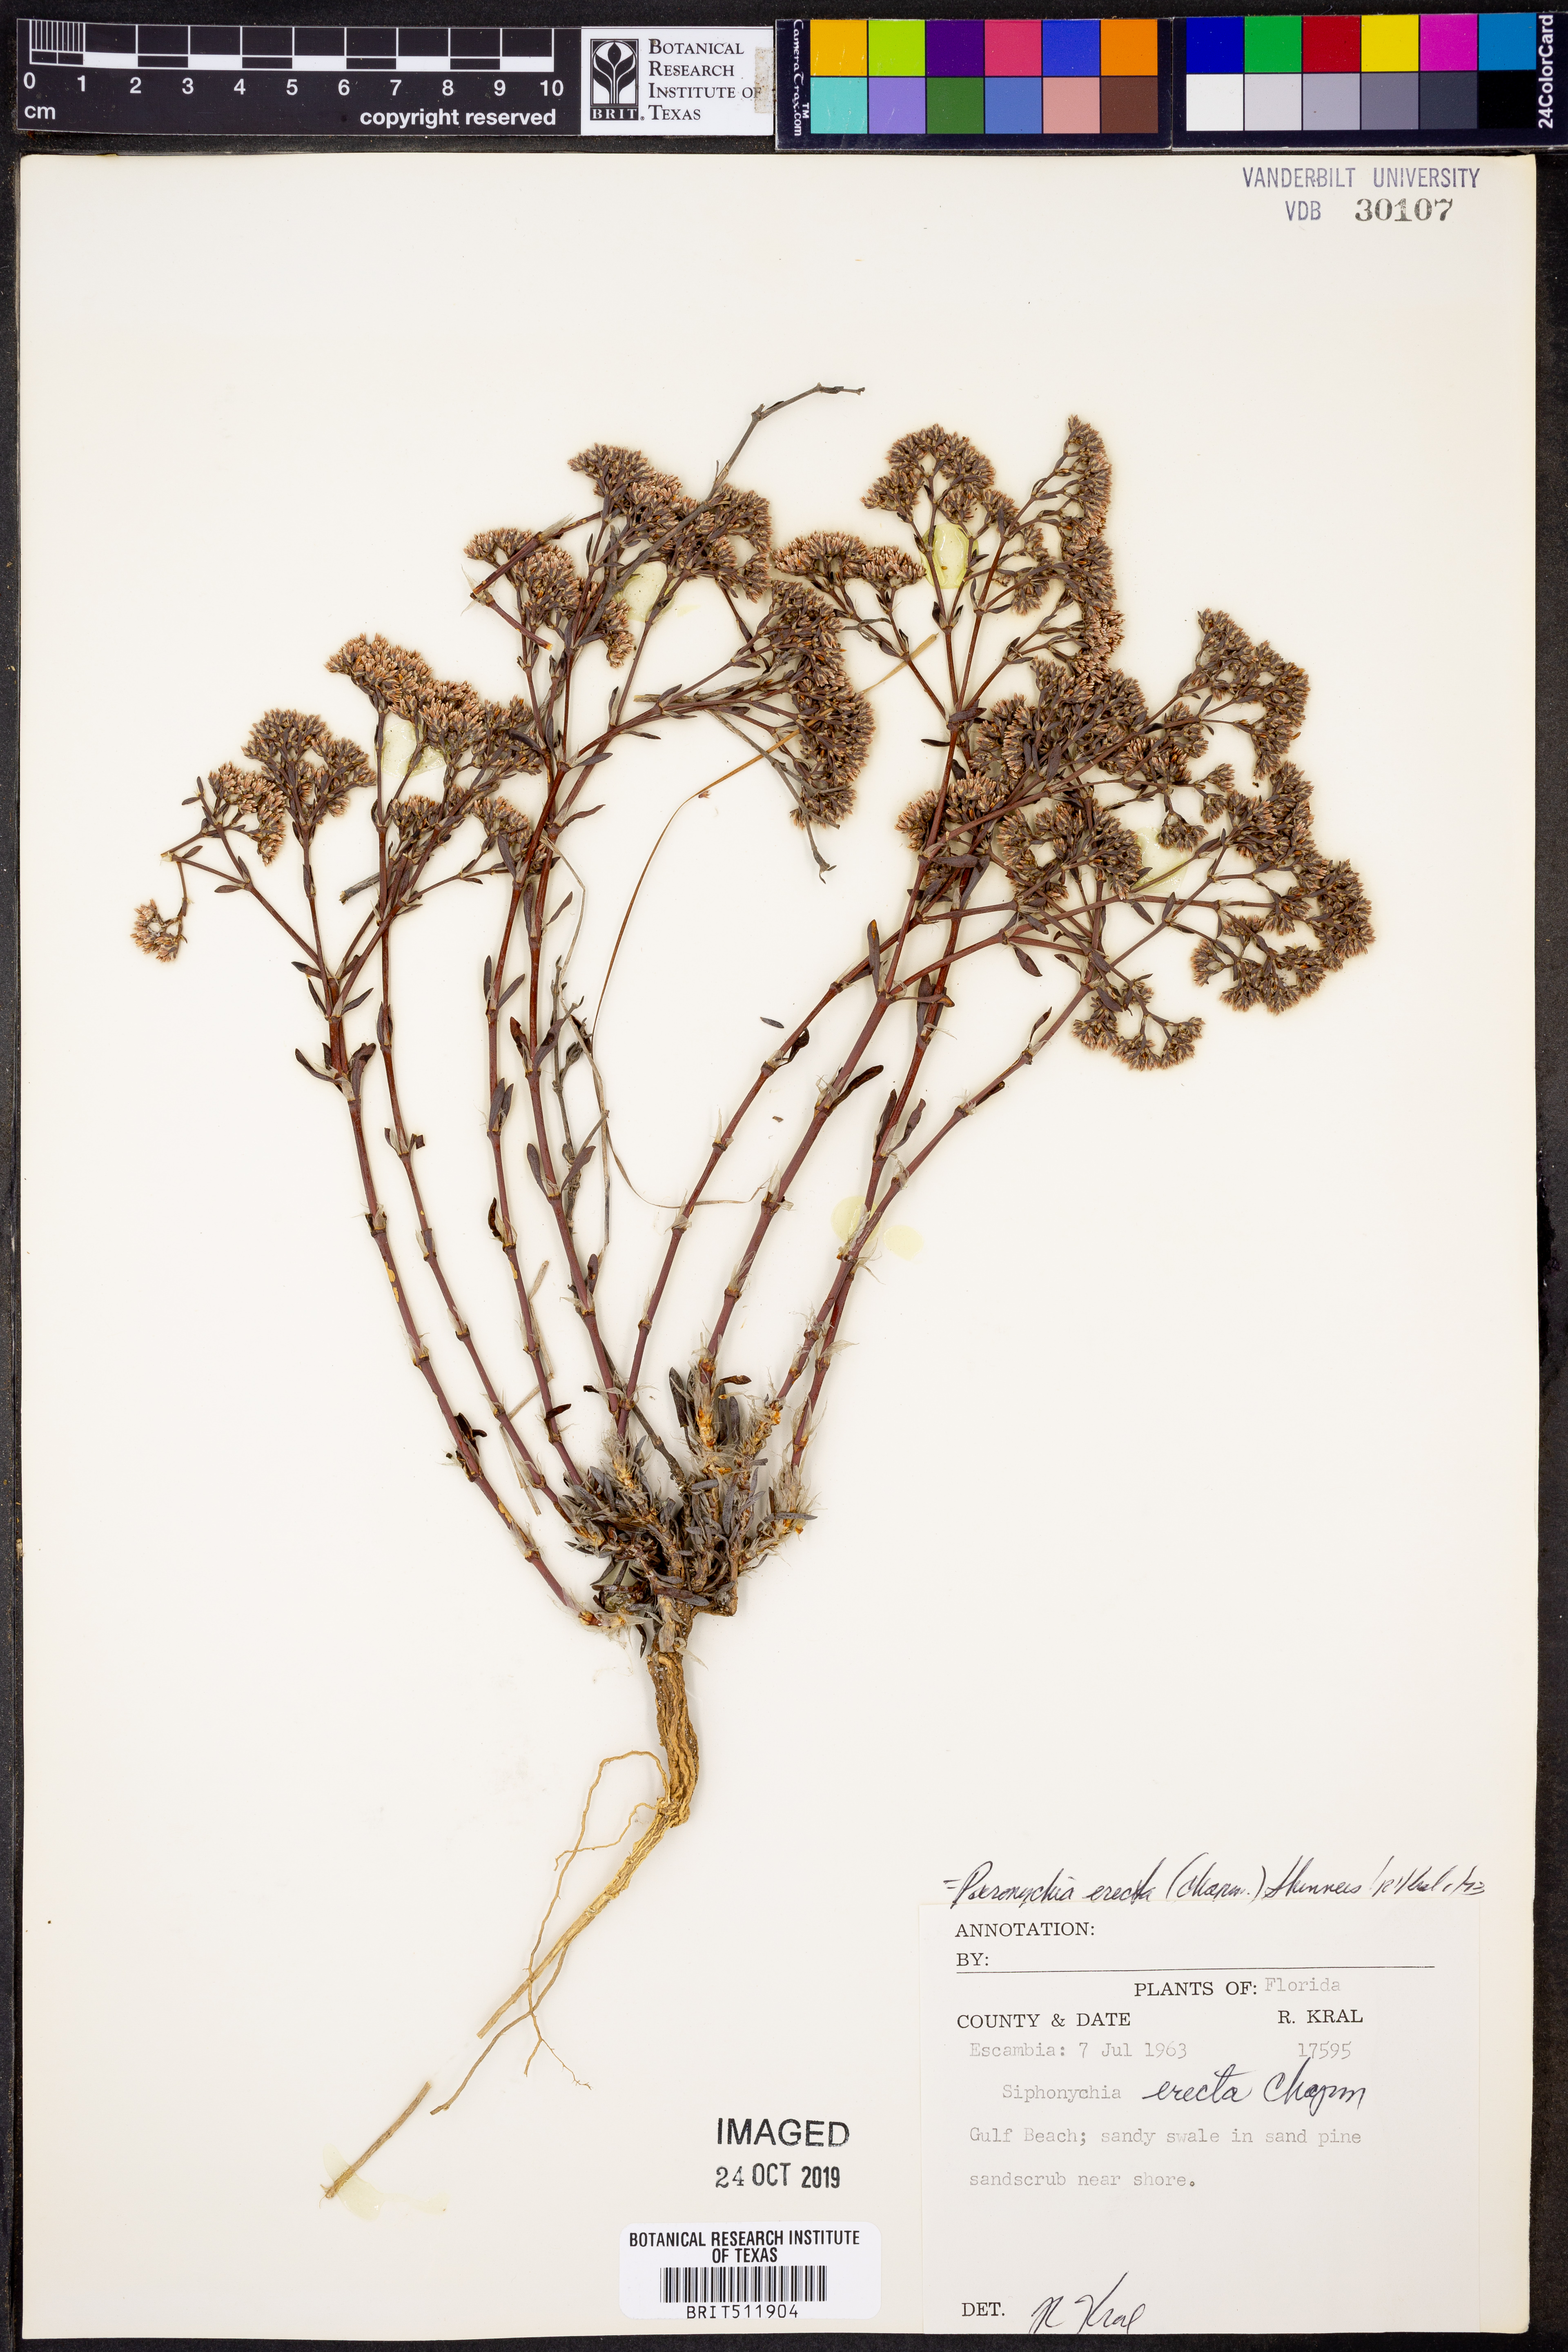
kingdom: Plantae
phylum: Tracheophyta
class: Magnoliopsida
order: Caryophyllales
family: Caryophyllaceae
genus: Paronychia
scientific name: Paronychia erecta
